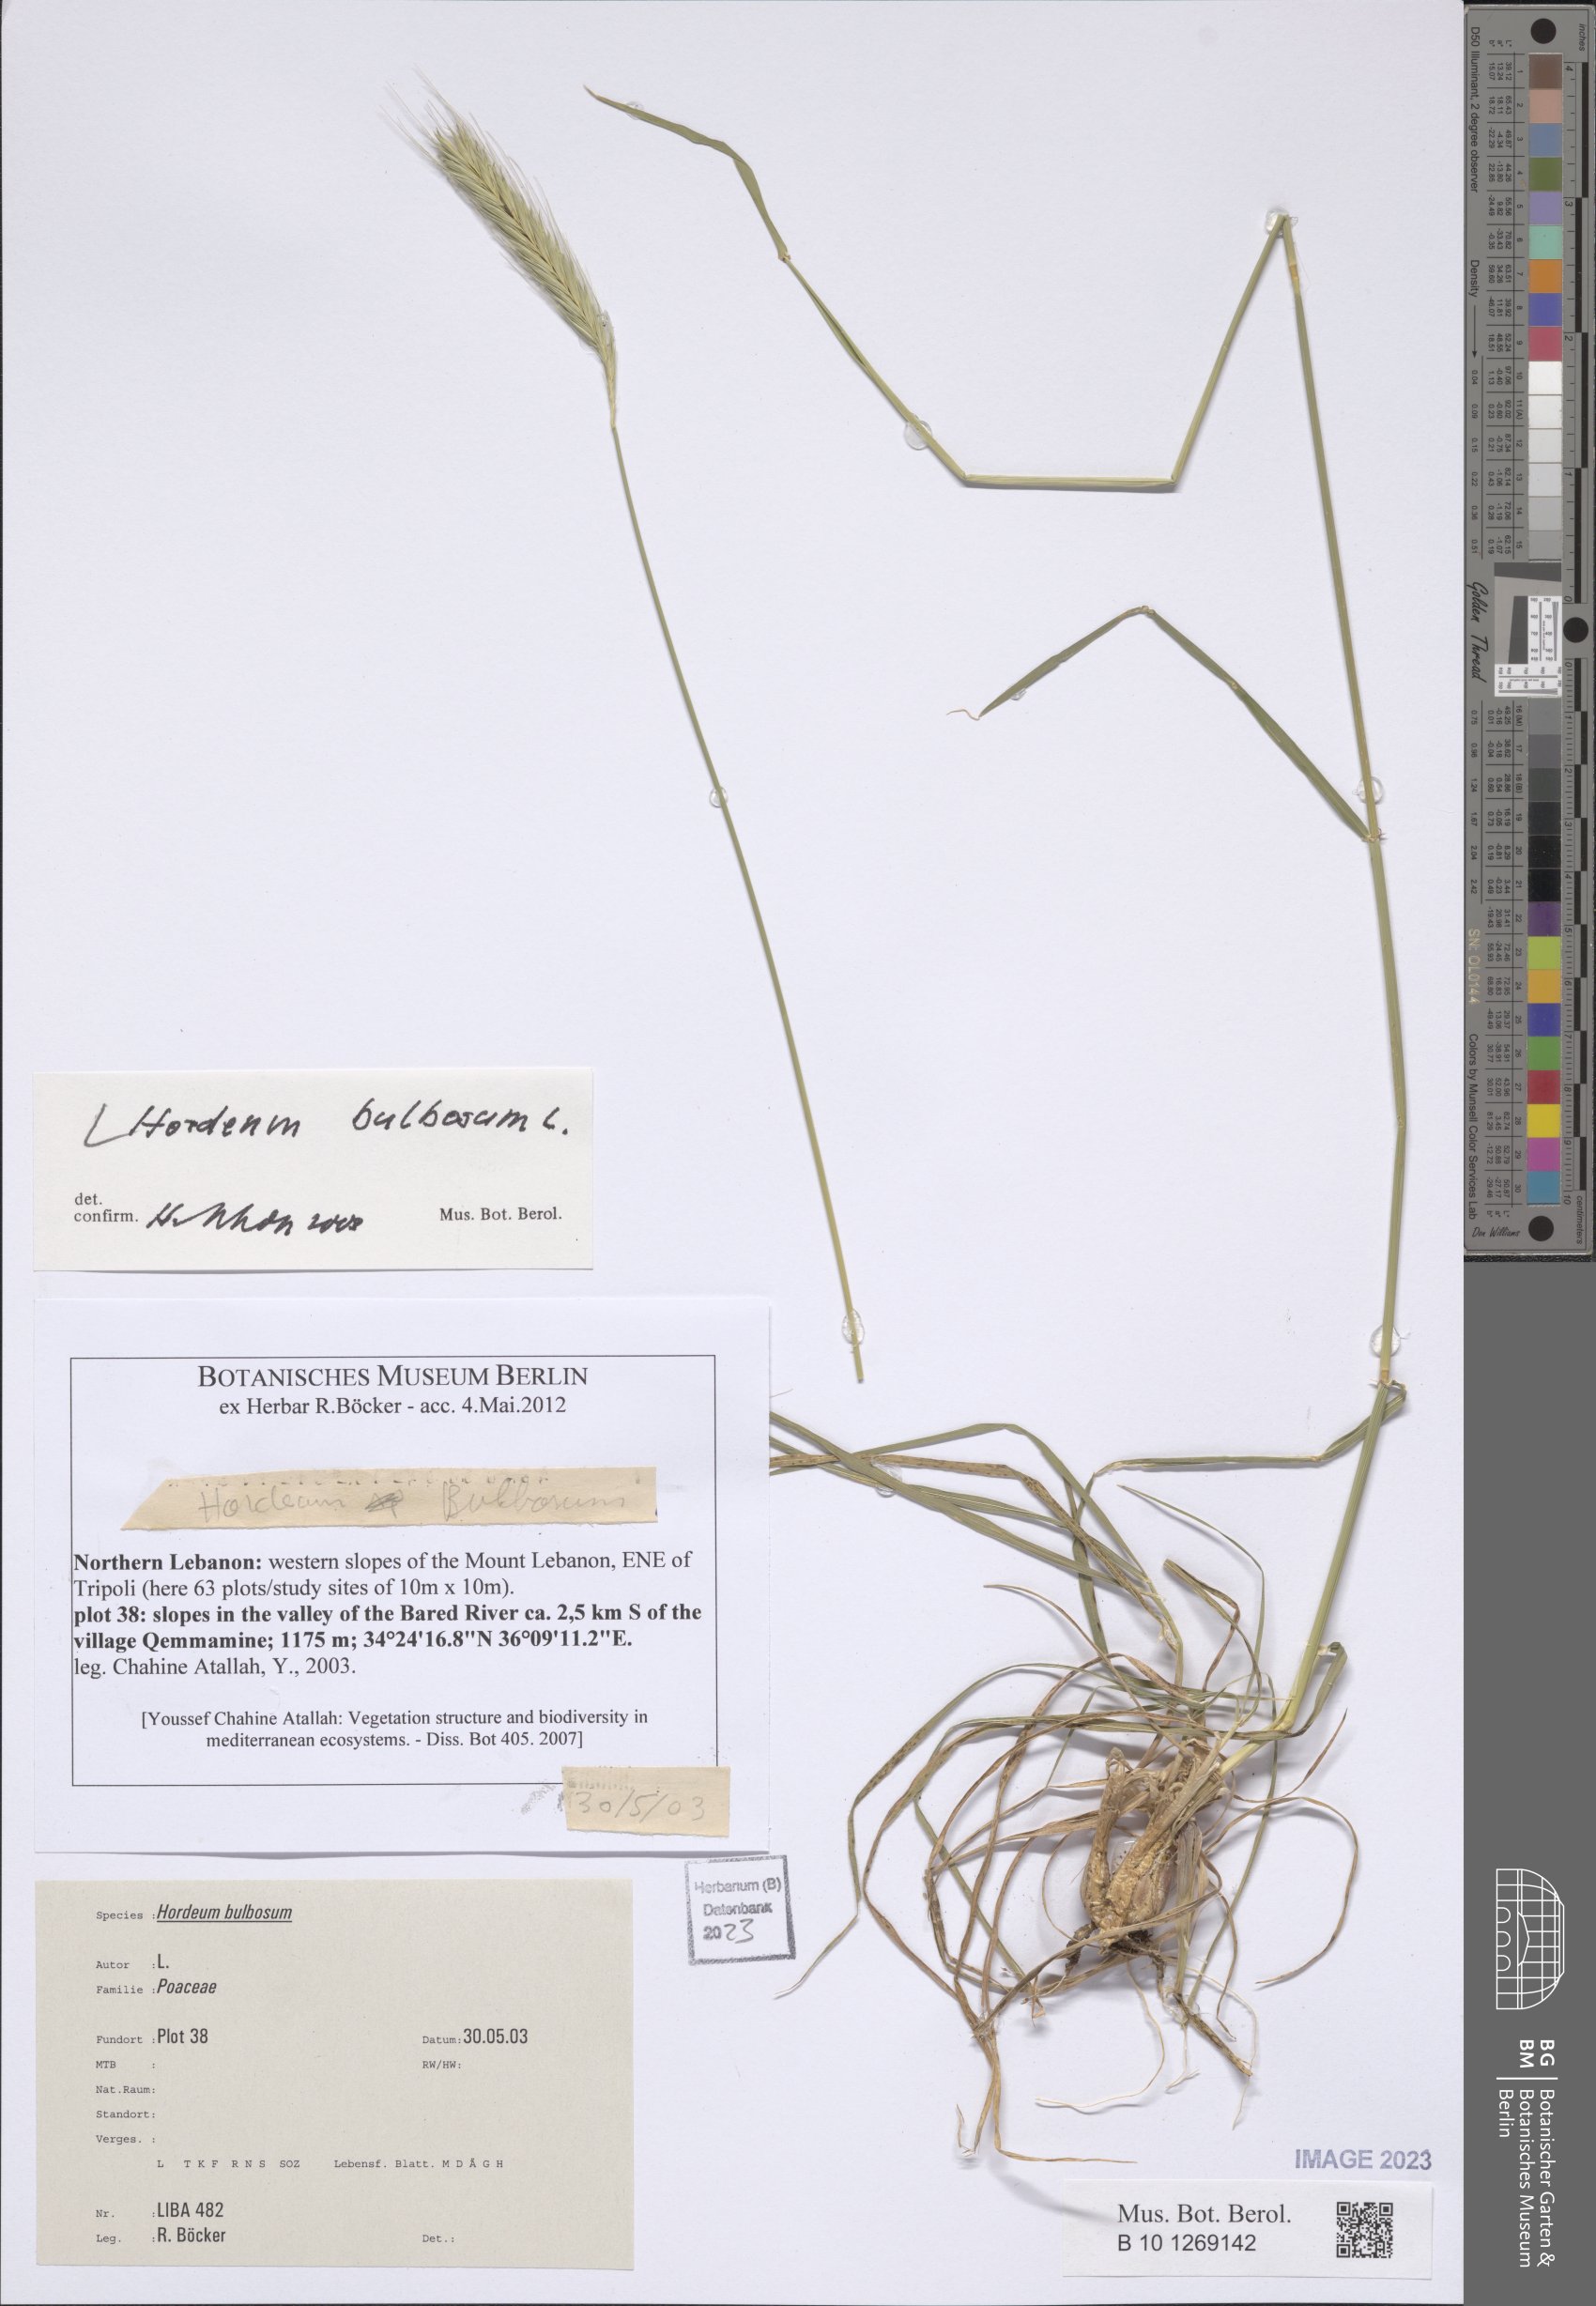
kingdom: Plantae
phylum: Tracheophyta
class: Liliopsida
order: Poales
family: Poaceae
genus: Hordeum
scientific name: Hordeum bulbosum
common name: Bulbous barley
